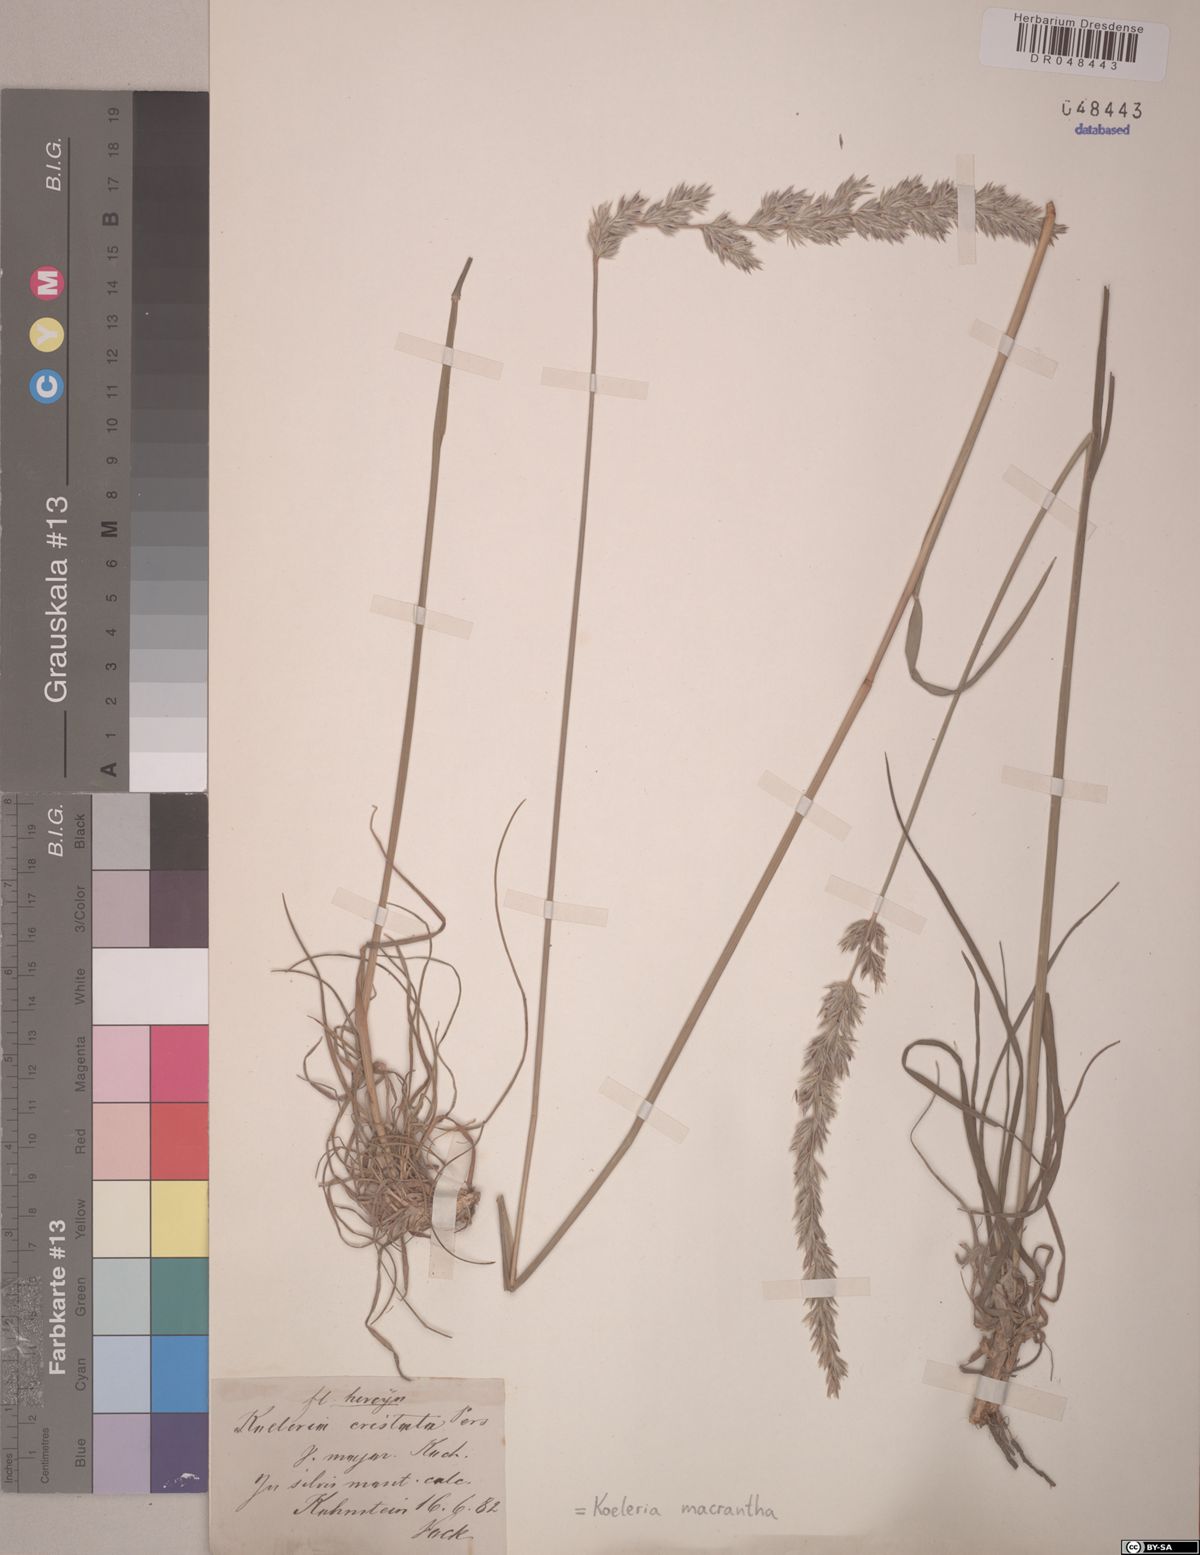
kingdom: Plantae
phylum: Tracheophyta
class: Liliopsida
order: Poales
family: Poaceae
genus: Koeleria
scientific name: Koeleria macrantha
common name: Crested hair-grass
